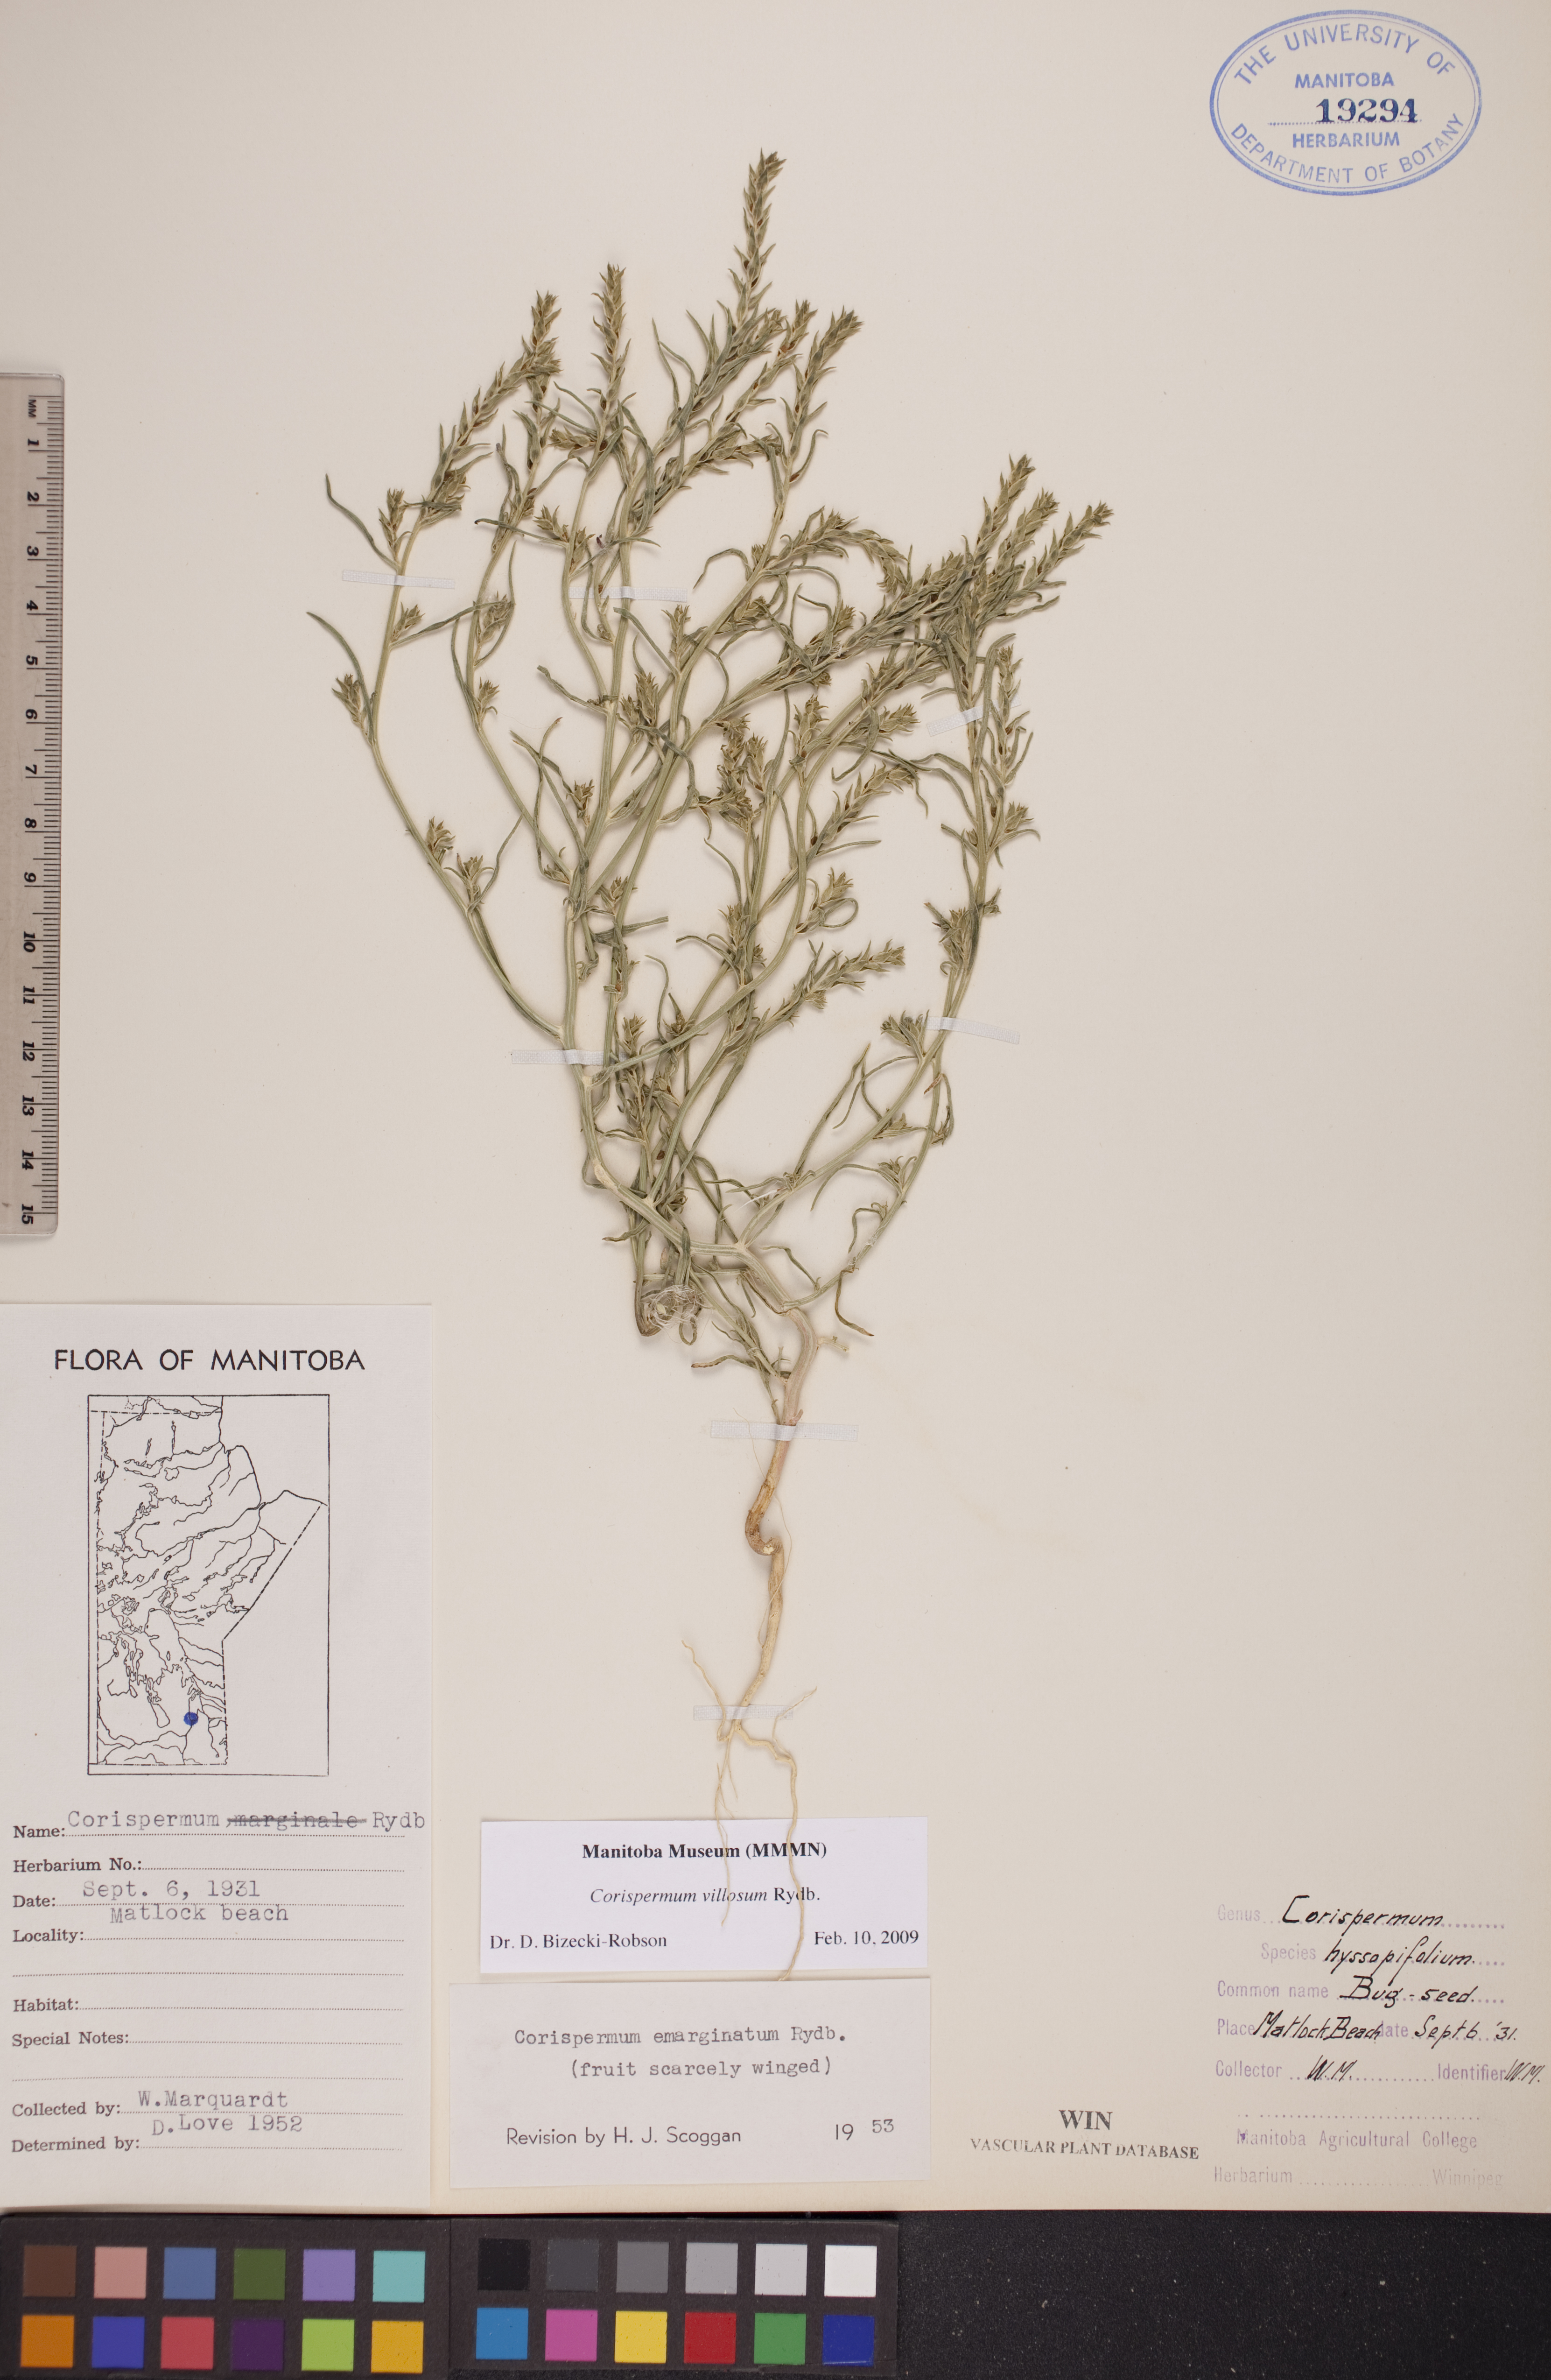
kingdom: Plantae
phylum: Tracheophyta
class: Magnoliopsida
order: Caryophyllales
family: Amaranthaceae
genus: Corispermum
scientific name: Corispermum villosum
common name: Hairy bugseed
